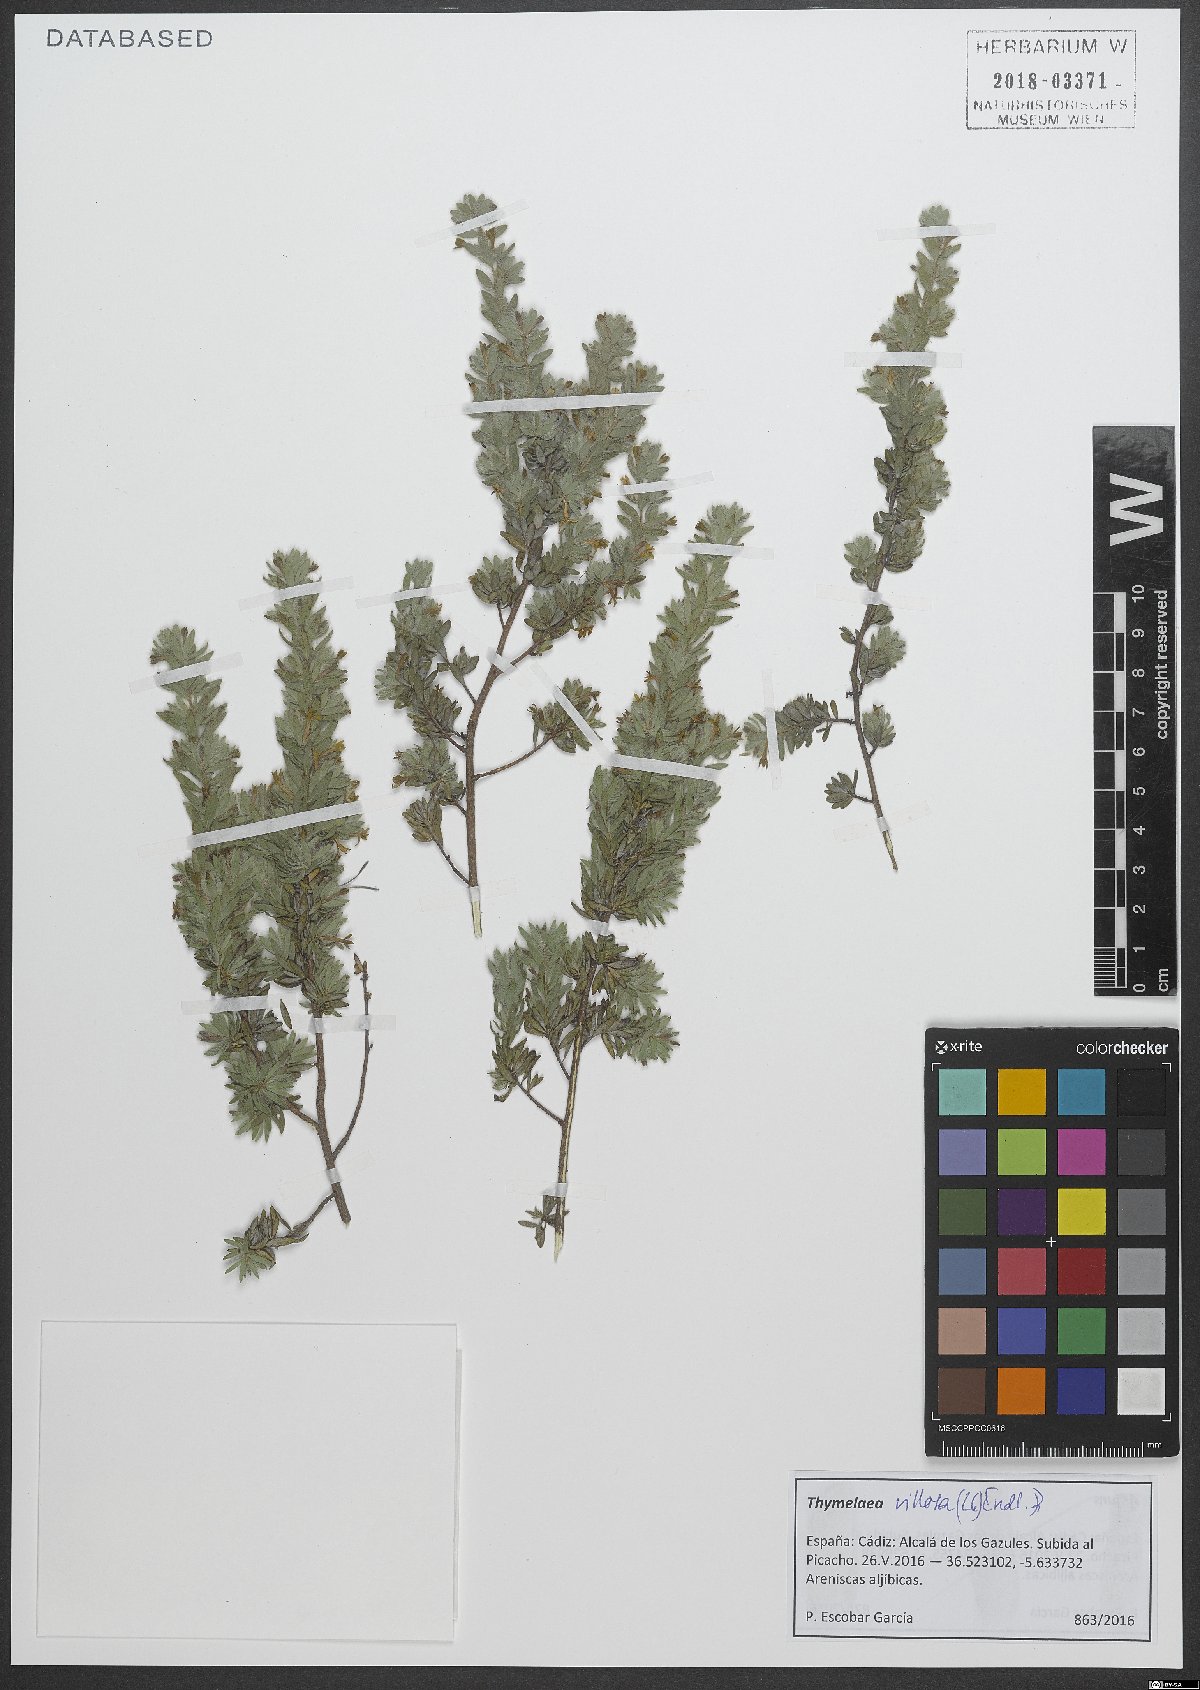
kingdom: Plantae
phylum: Tracheophyta
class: Magnoliopsida
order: Malvales
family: Thymelaeaceae
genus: Thymelaea
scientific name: Thymelaea villosa
